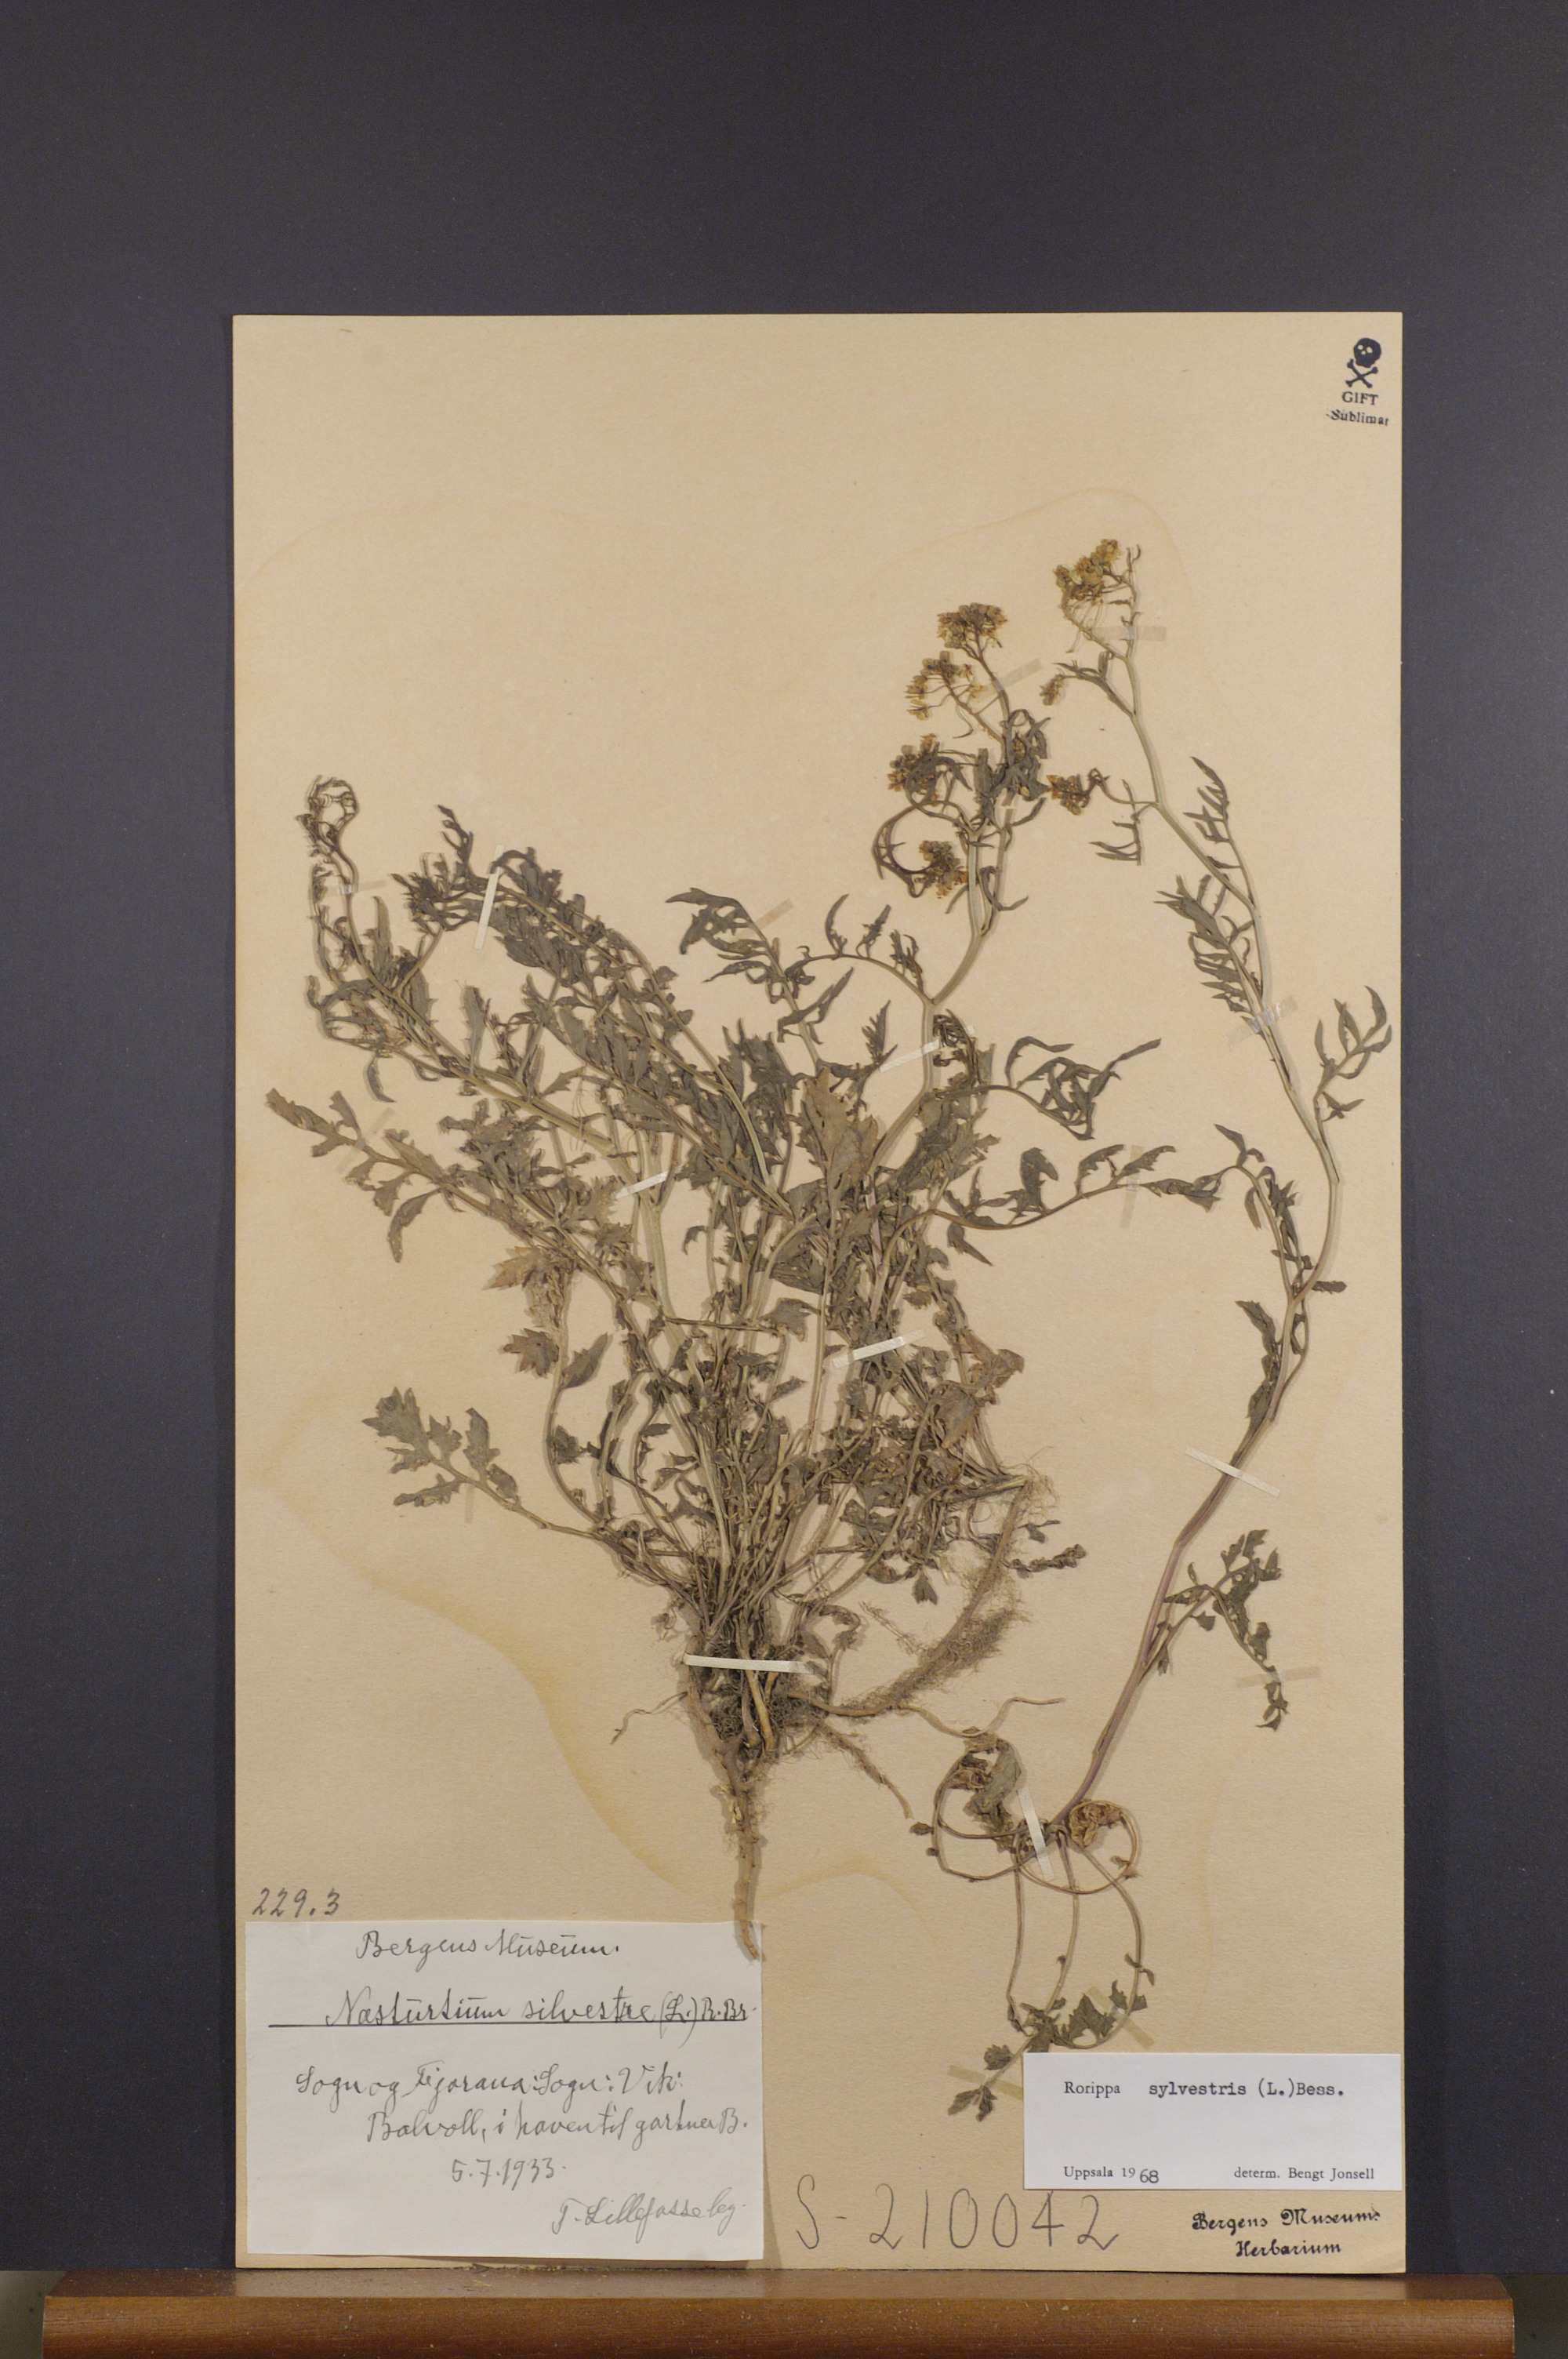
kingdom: Plantae
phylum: Tracheophyta
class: Magnoliopsida
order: Brassicales
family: Brassicaceae
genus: Rorippa
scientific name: Rorippa sylvestris
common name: Creeping yellowcress
